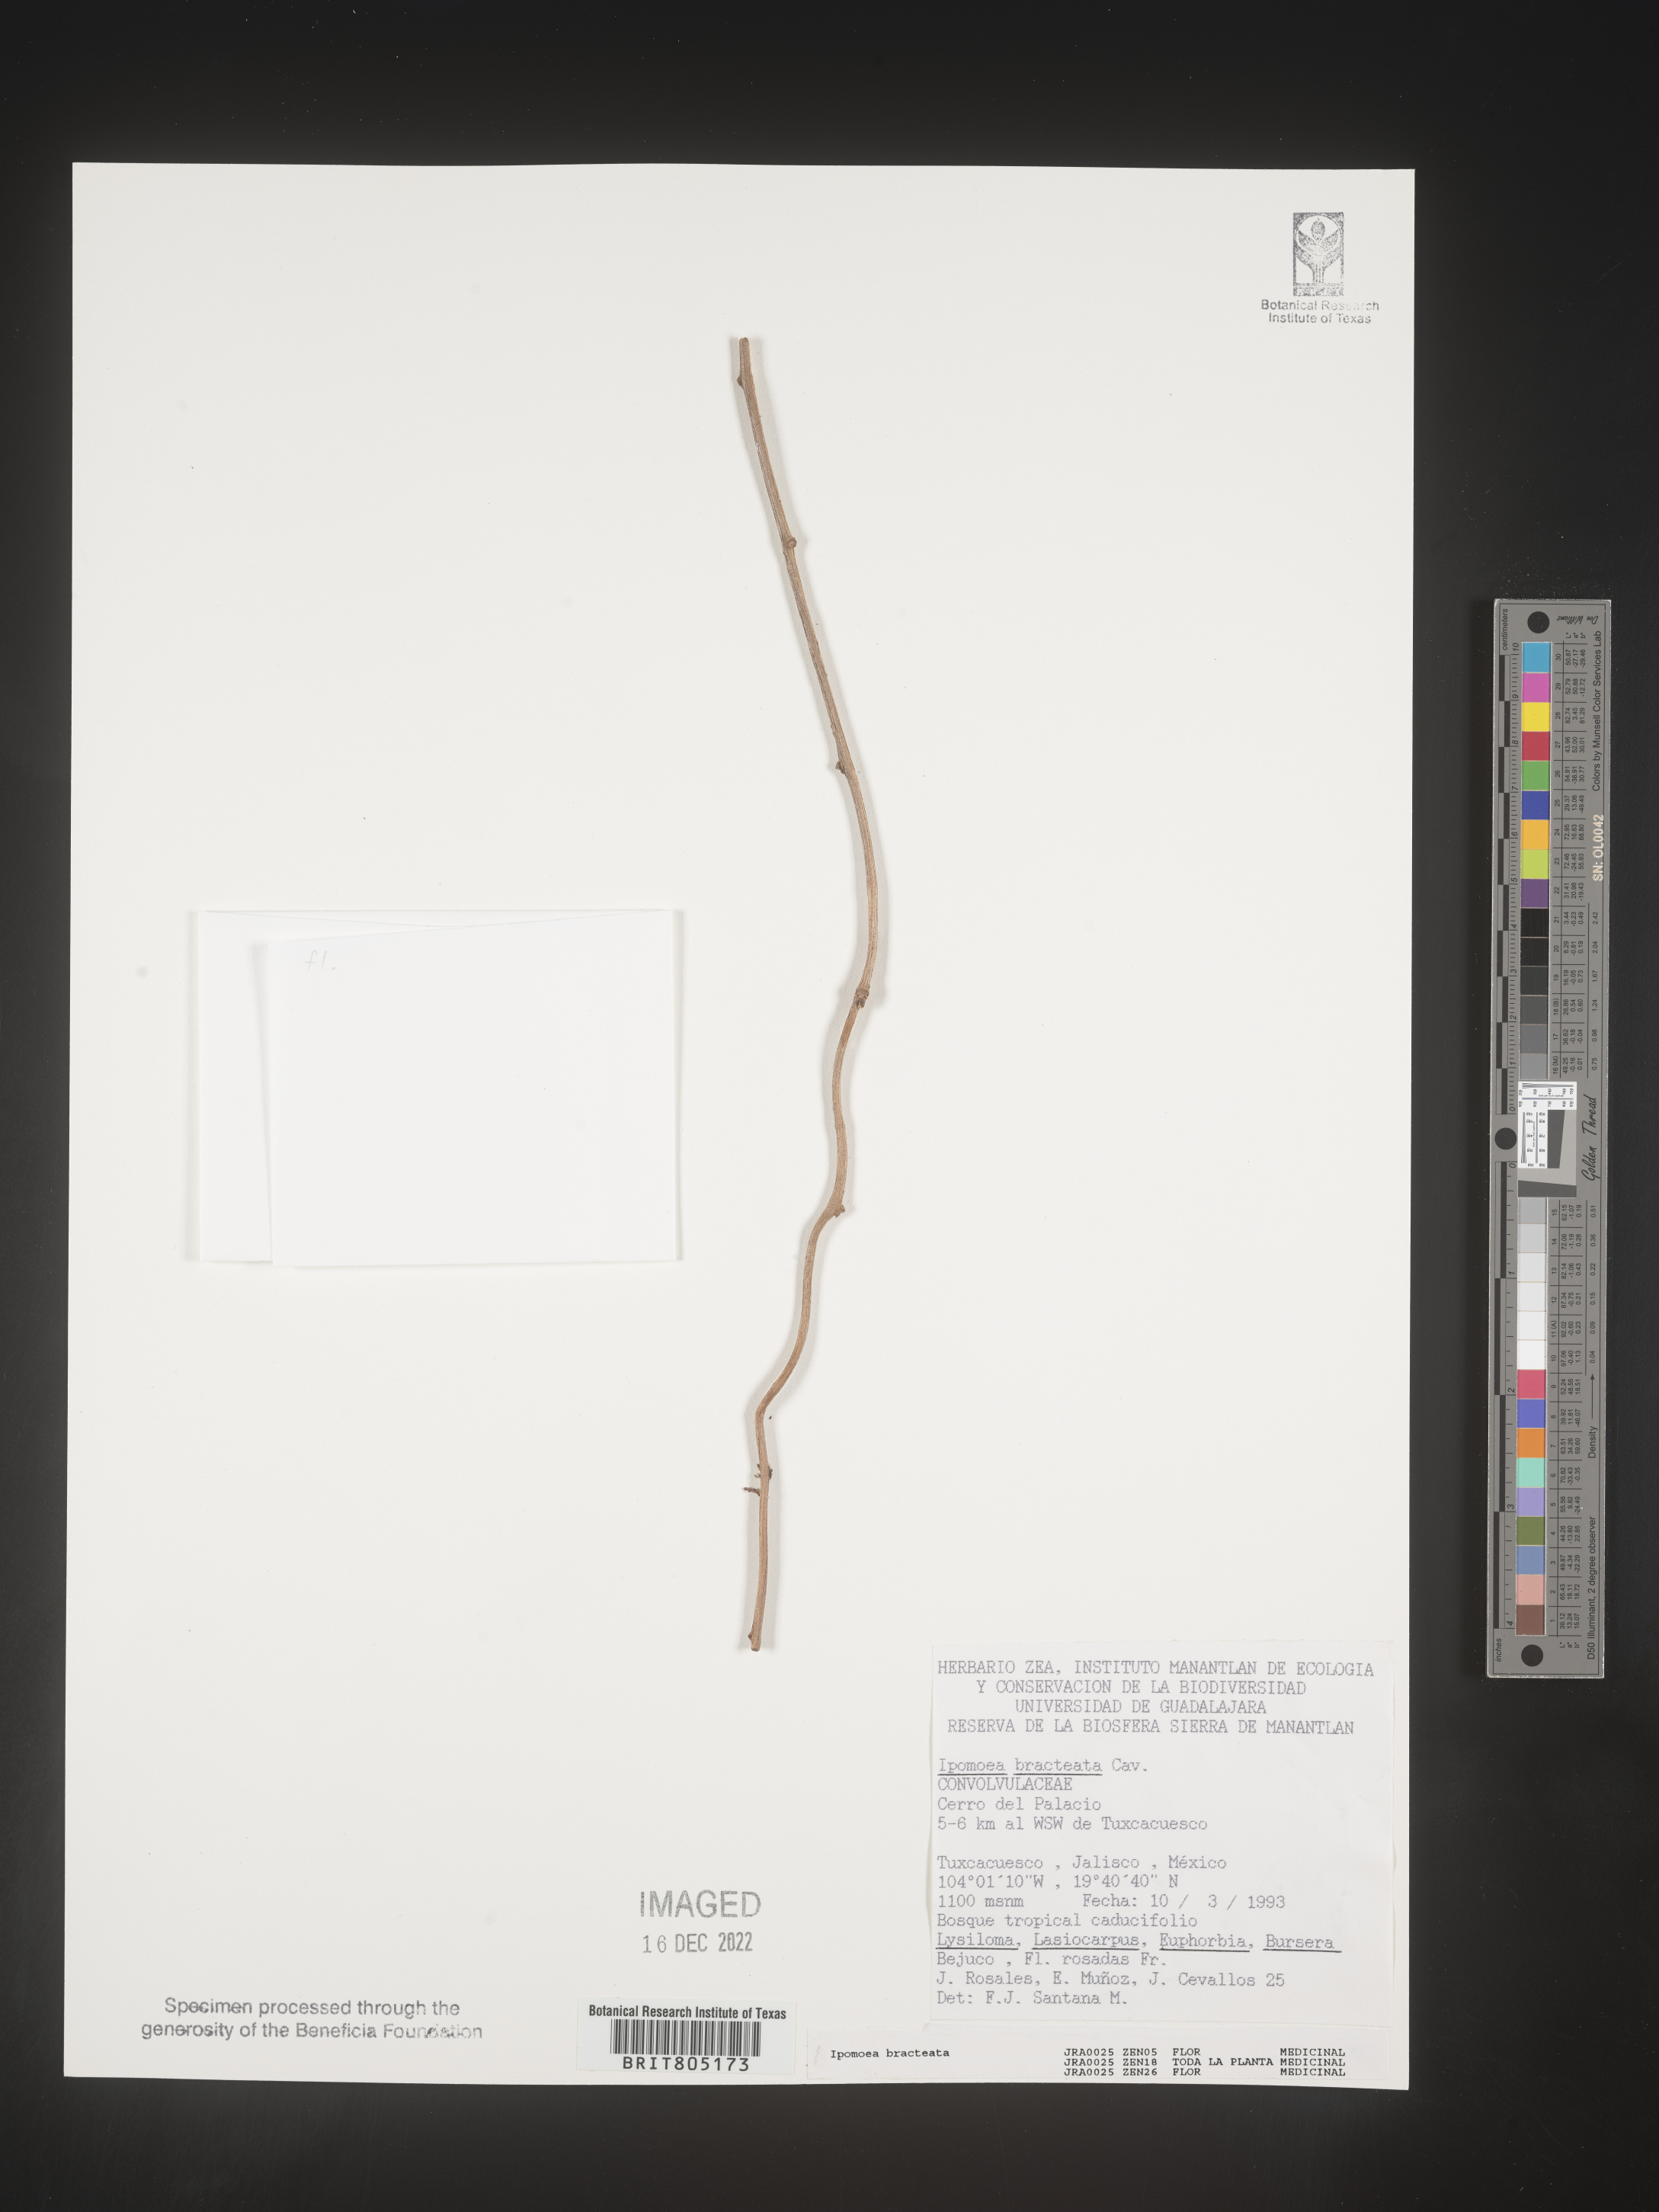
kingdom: Plantae
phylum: Tracheophyta
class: Magnoliopsida
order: Solanales
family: Convolvulaceae
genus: Ipomoea
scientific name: Ipomoea
